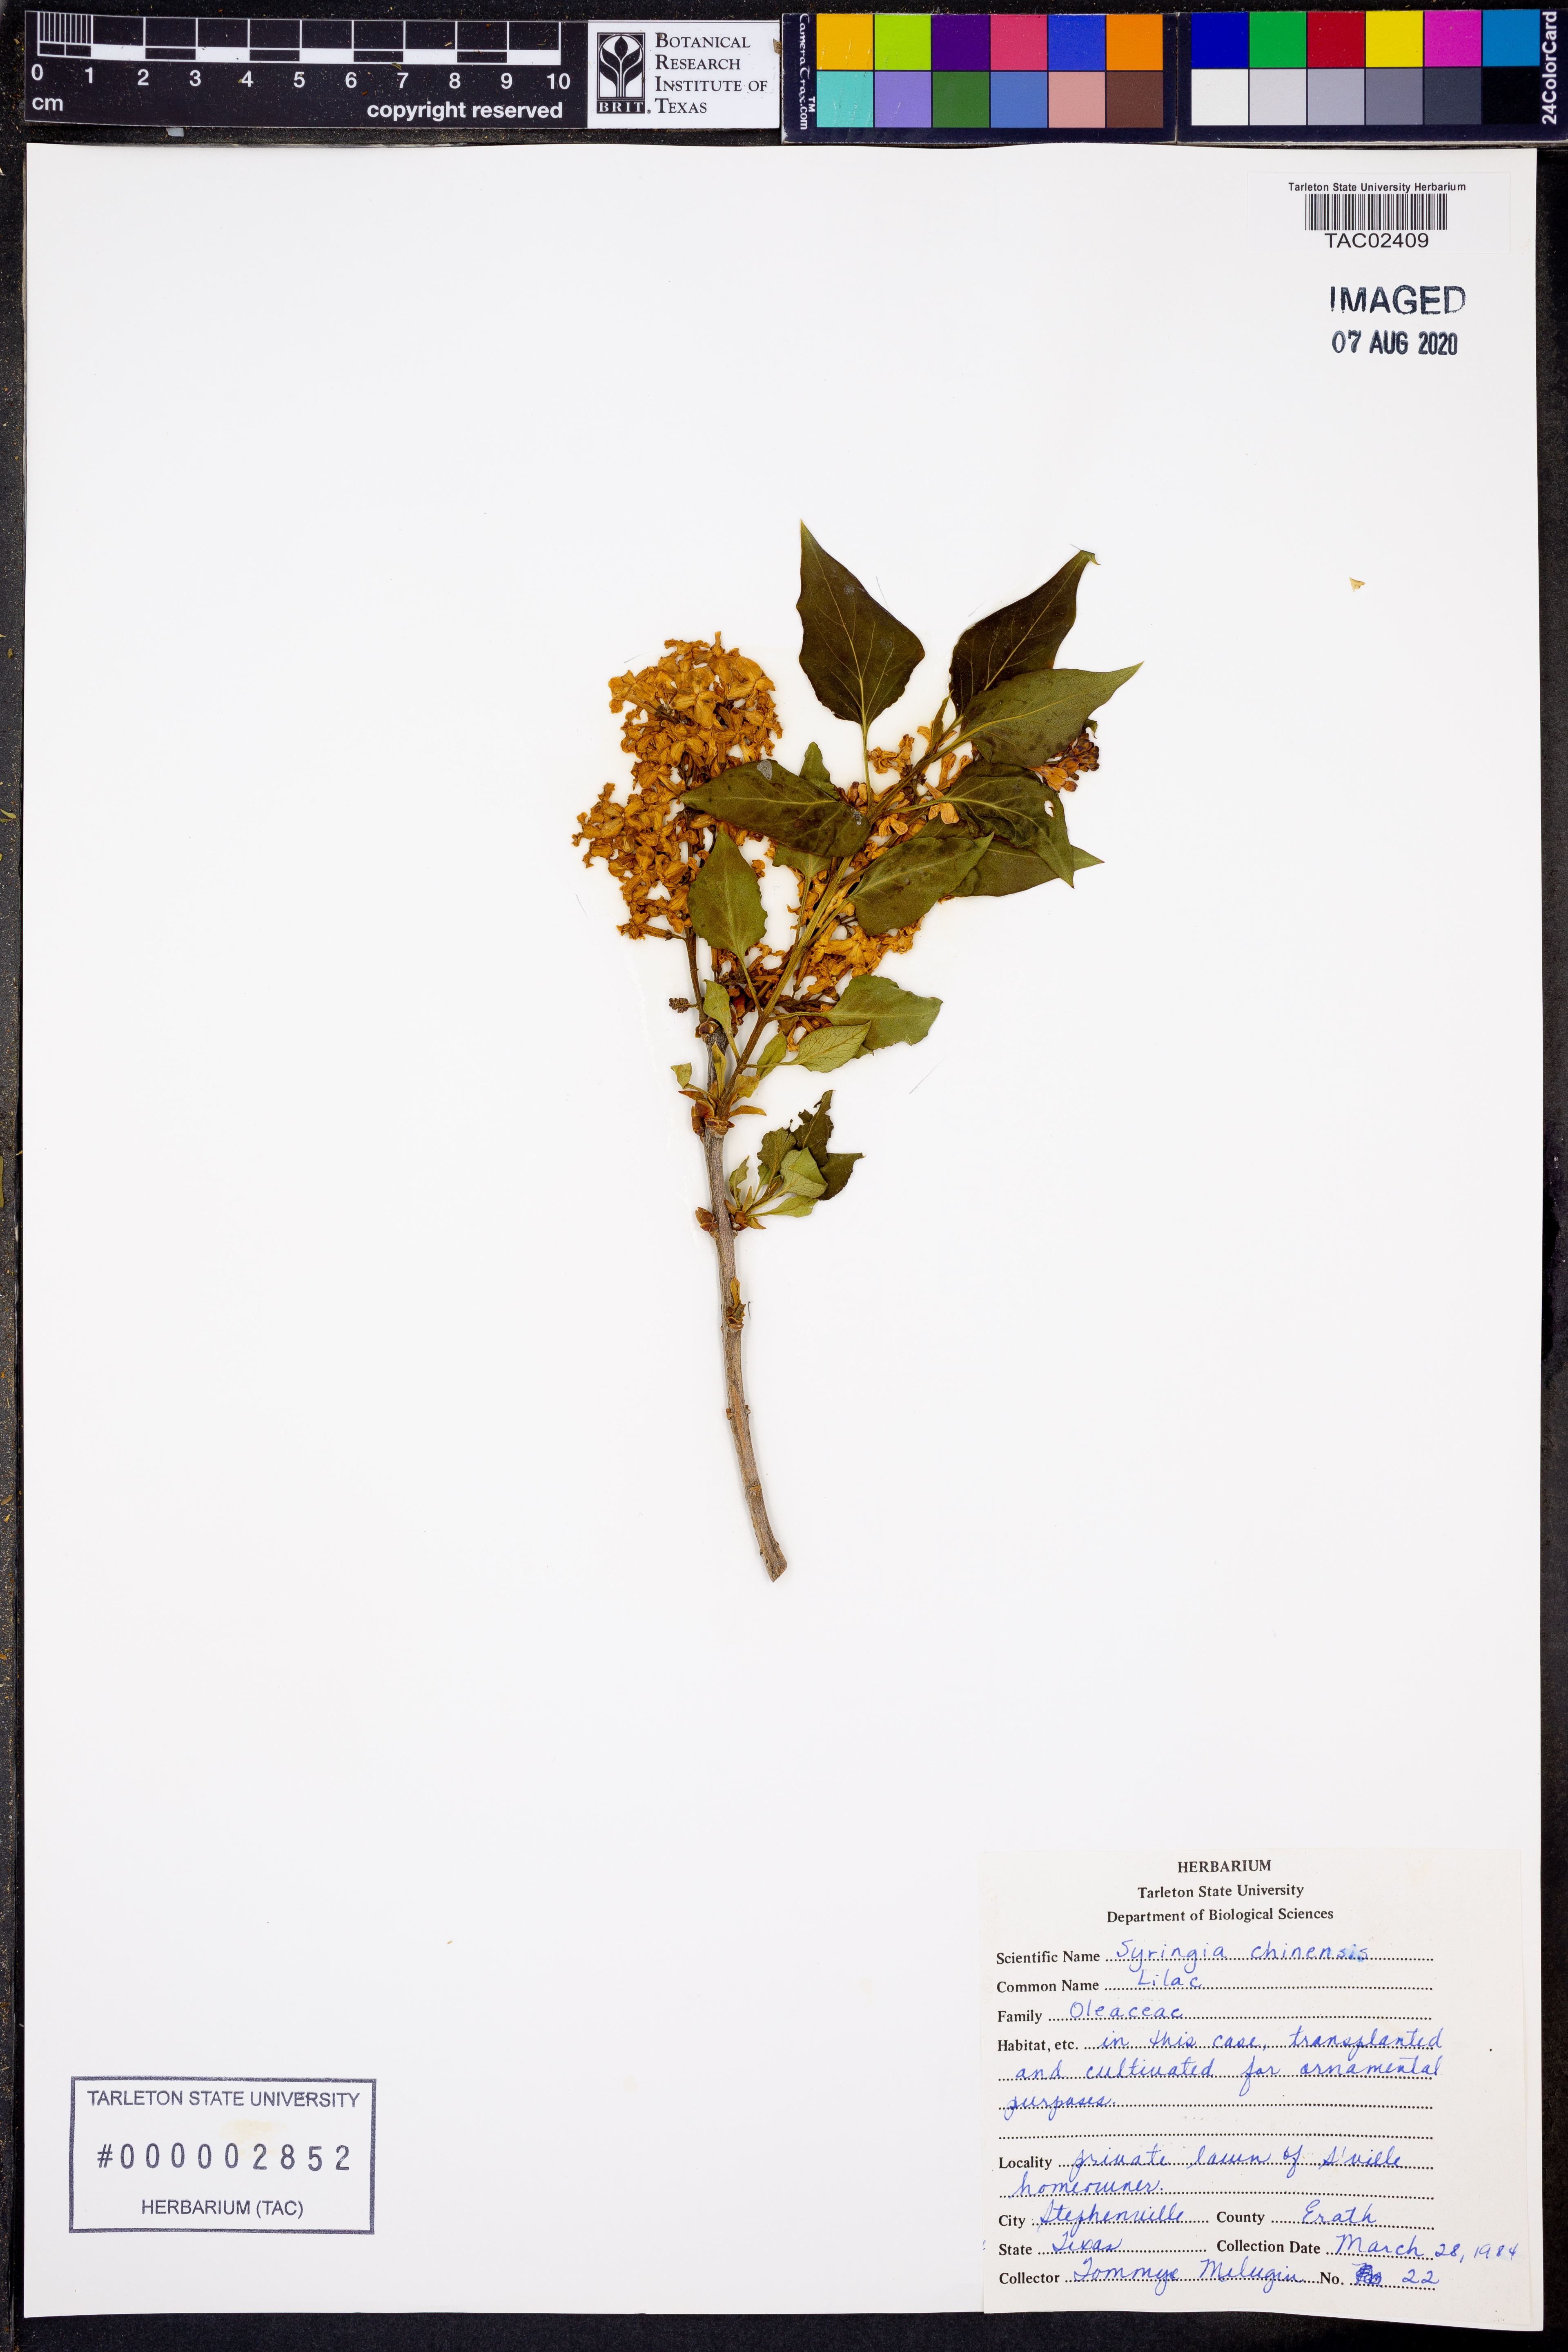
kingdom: Plantae
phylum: Tracheophyta
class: Magnoliopsida
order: Lamiales
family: Oleaceae
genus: Syringa
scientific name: Syringa chinensis
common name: Chinese lilac
